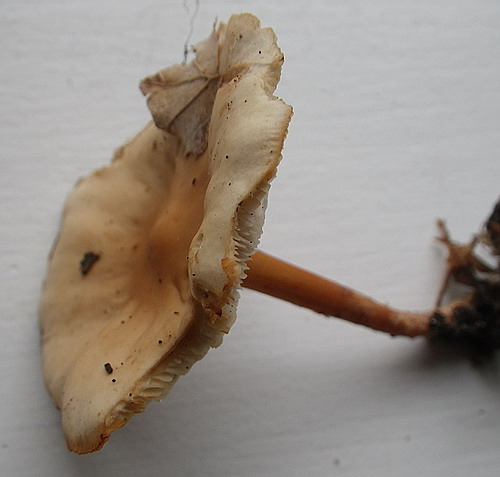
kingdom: Fungi
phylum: Basidiomycota
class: Agaricomycetes
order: Agaricales
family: Omphalotaceae
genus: Gymnopus
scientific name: Gymnopus dryophilus
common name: løv-fladhat
